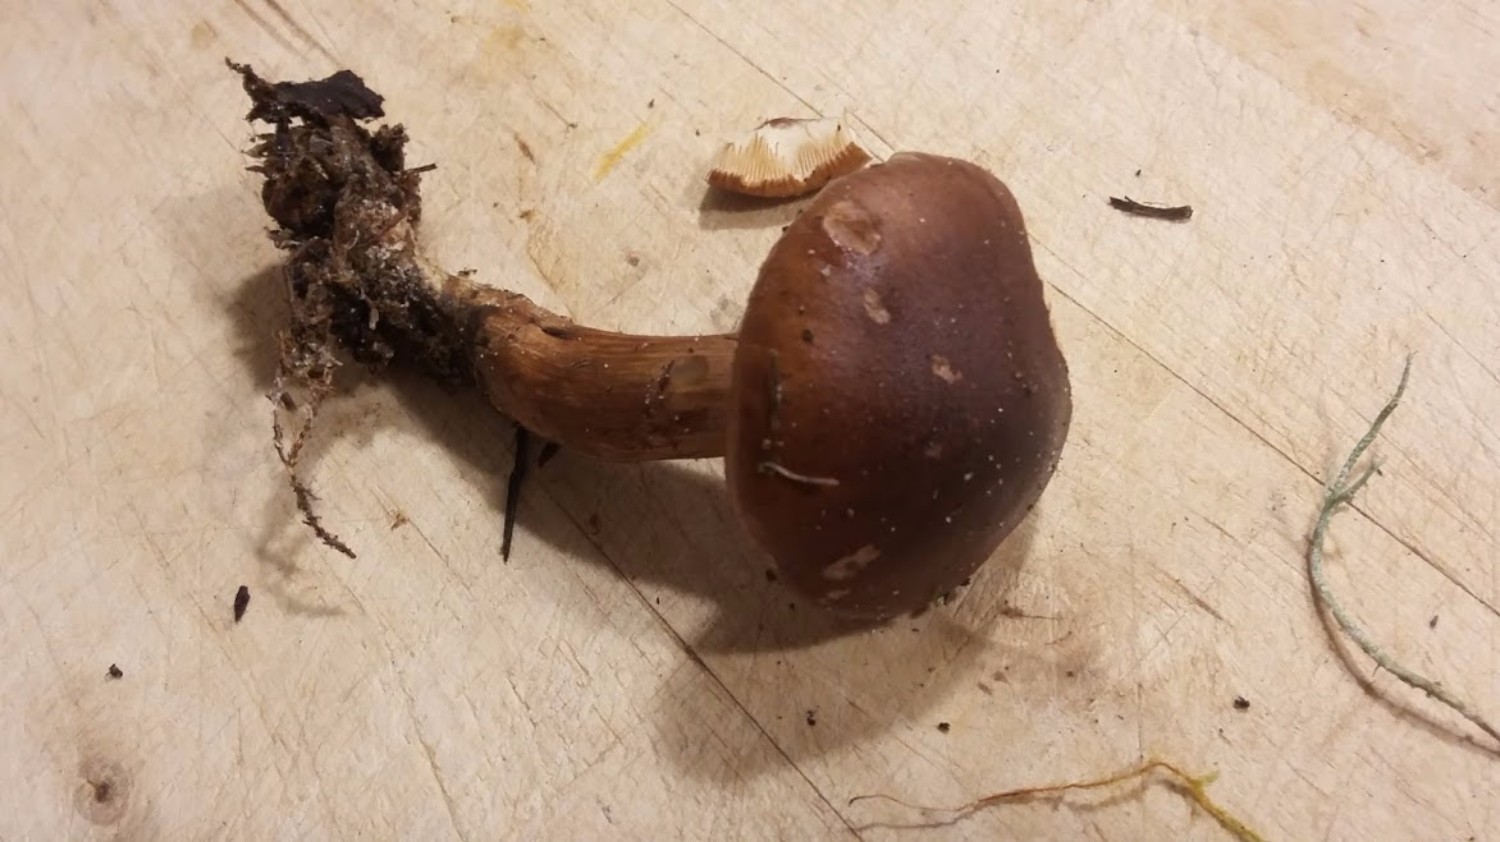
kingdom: Fungi
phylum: Basidiomycota
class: Agaricomycetes
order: Agaricales
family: Tricholomataceae
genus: Tricholoma
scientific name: Tricholoma
